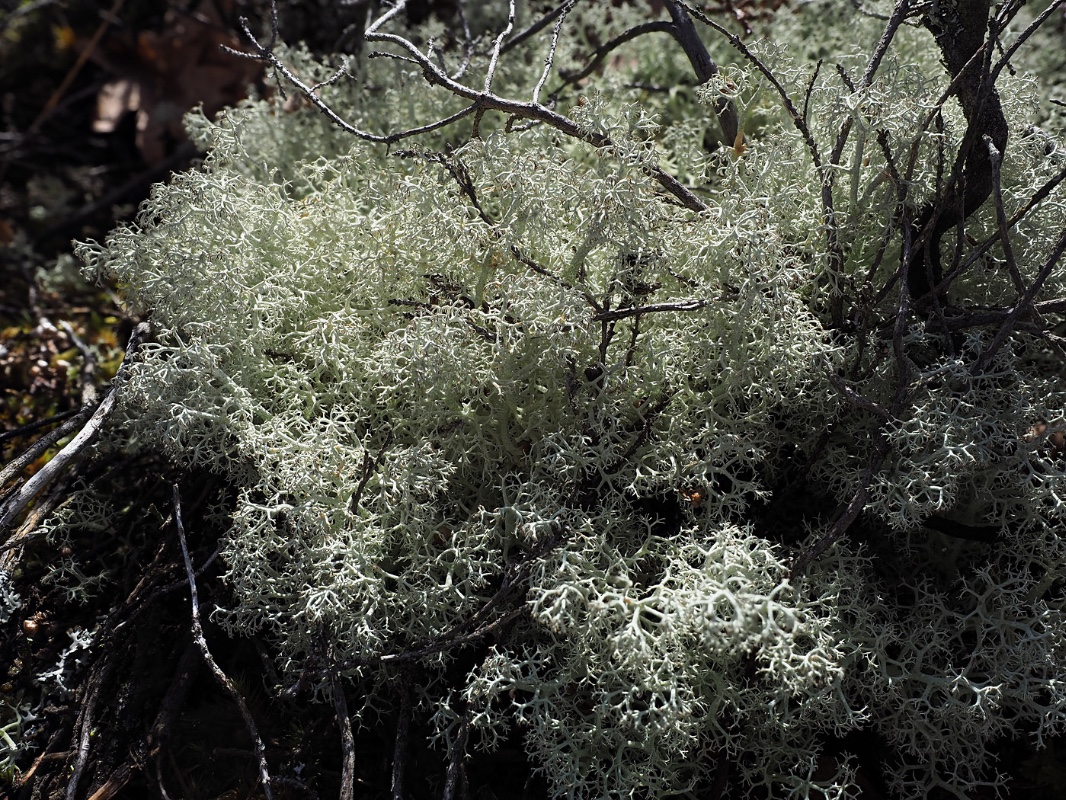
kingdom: Fungi
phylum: Ascomycota
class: Lecanoromycetes
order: Lecanorales
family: Cladoniaceae
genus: Cladonia
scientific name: Cladonia portentosa
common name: hede-rensdyrlav
